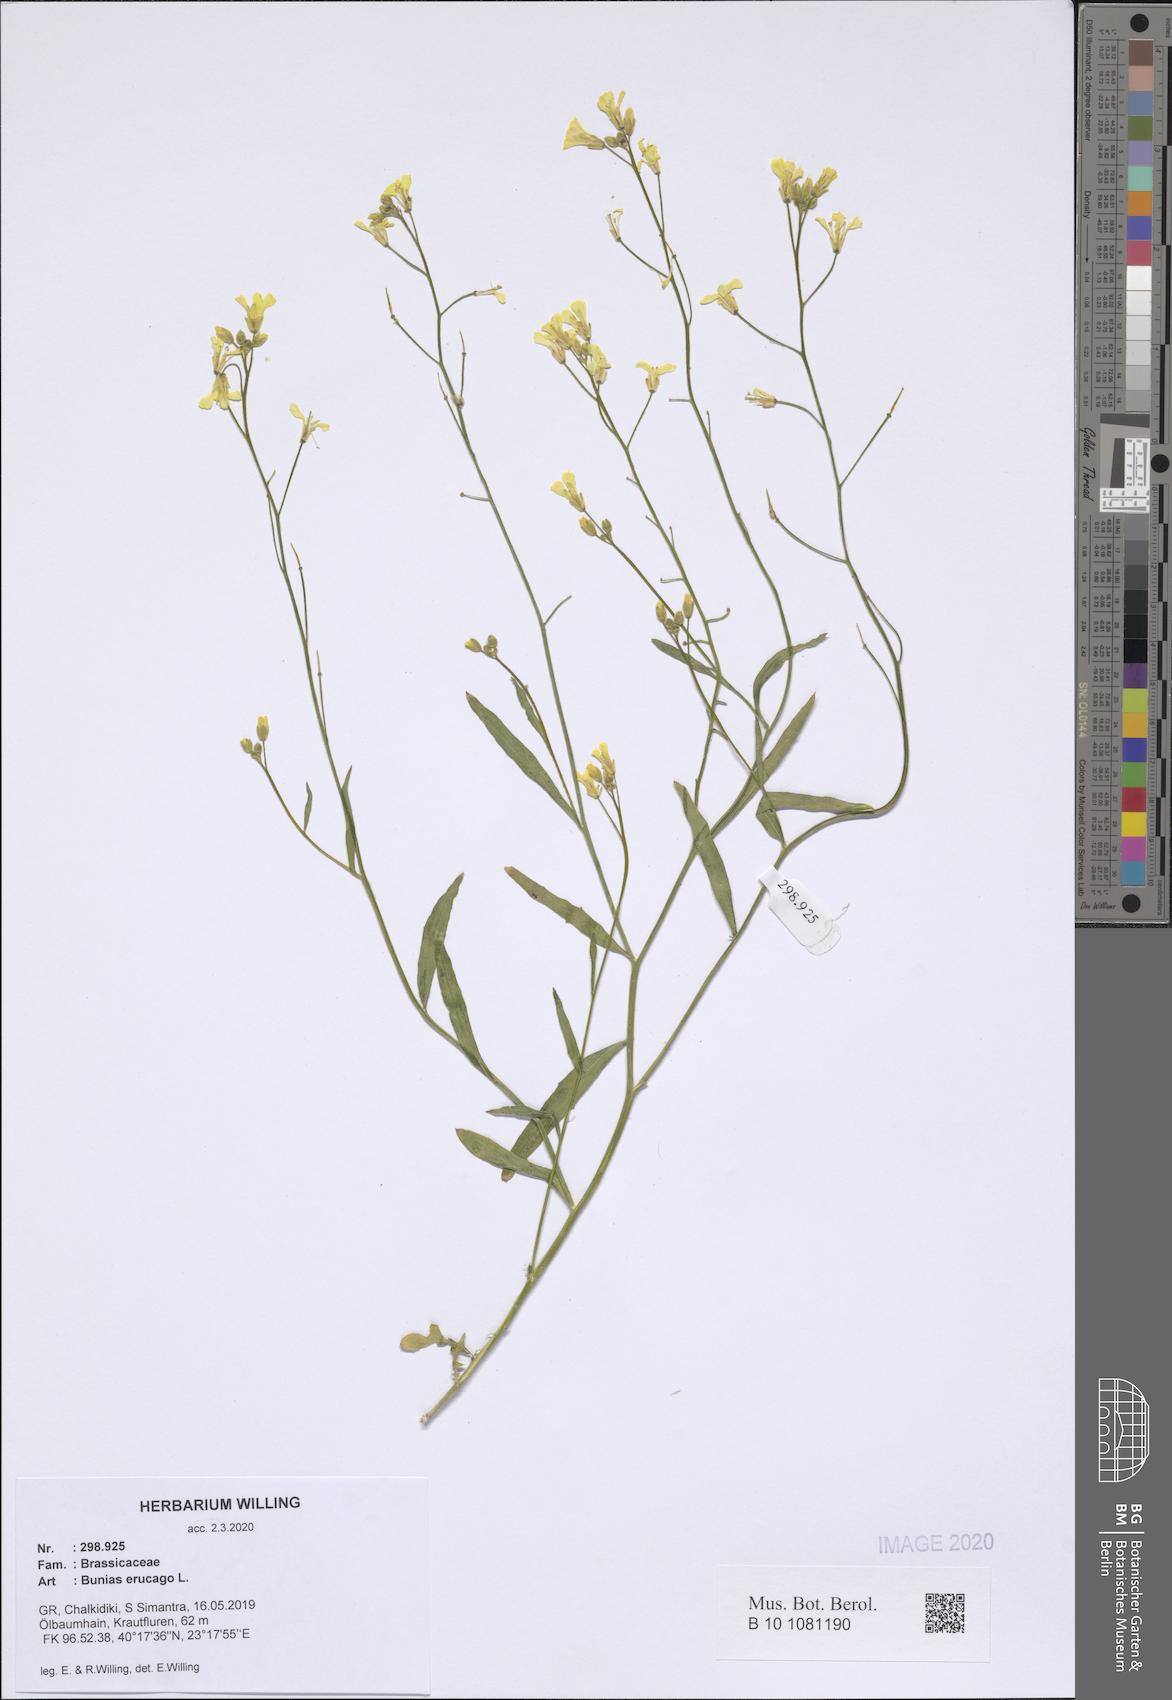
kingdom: Plantae
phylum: Tracheophyta
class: Magnoliopsida
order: Brassicales
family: Brassicaceae
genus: Bunias
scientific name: Bunias erucago
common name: Southern warty-cabbage
